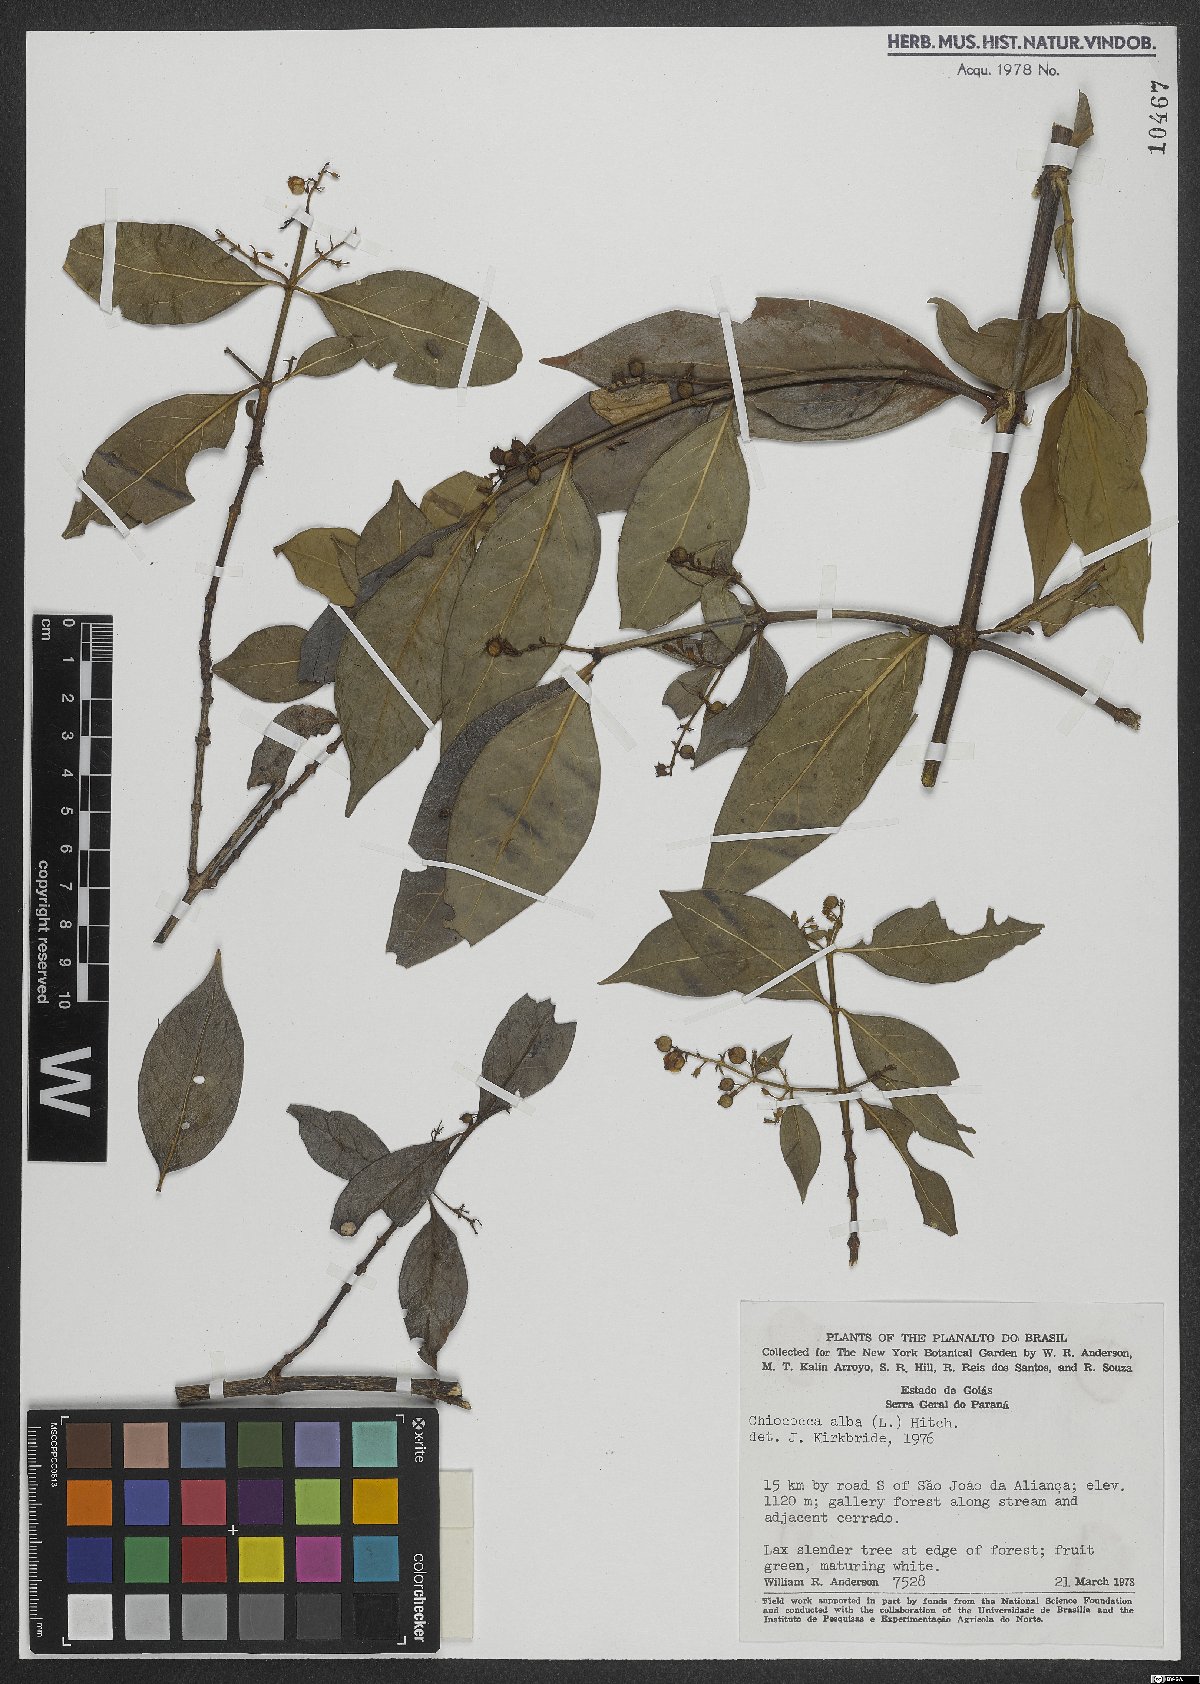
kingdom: Plantae
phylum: Tracheophyta
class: Magnoliopsida
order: Gentianales
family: Rubiaceae
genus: Chiococca
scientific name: Chiococca alba
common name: Snowberry
